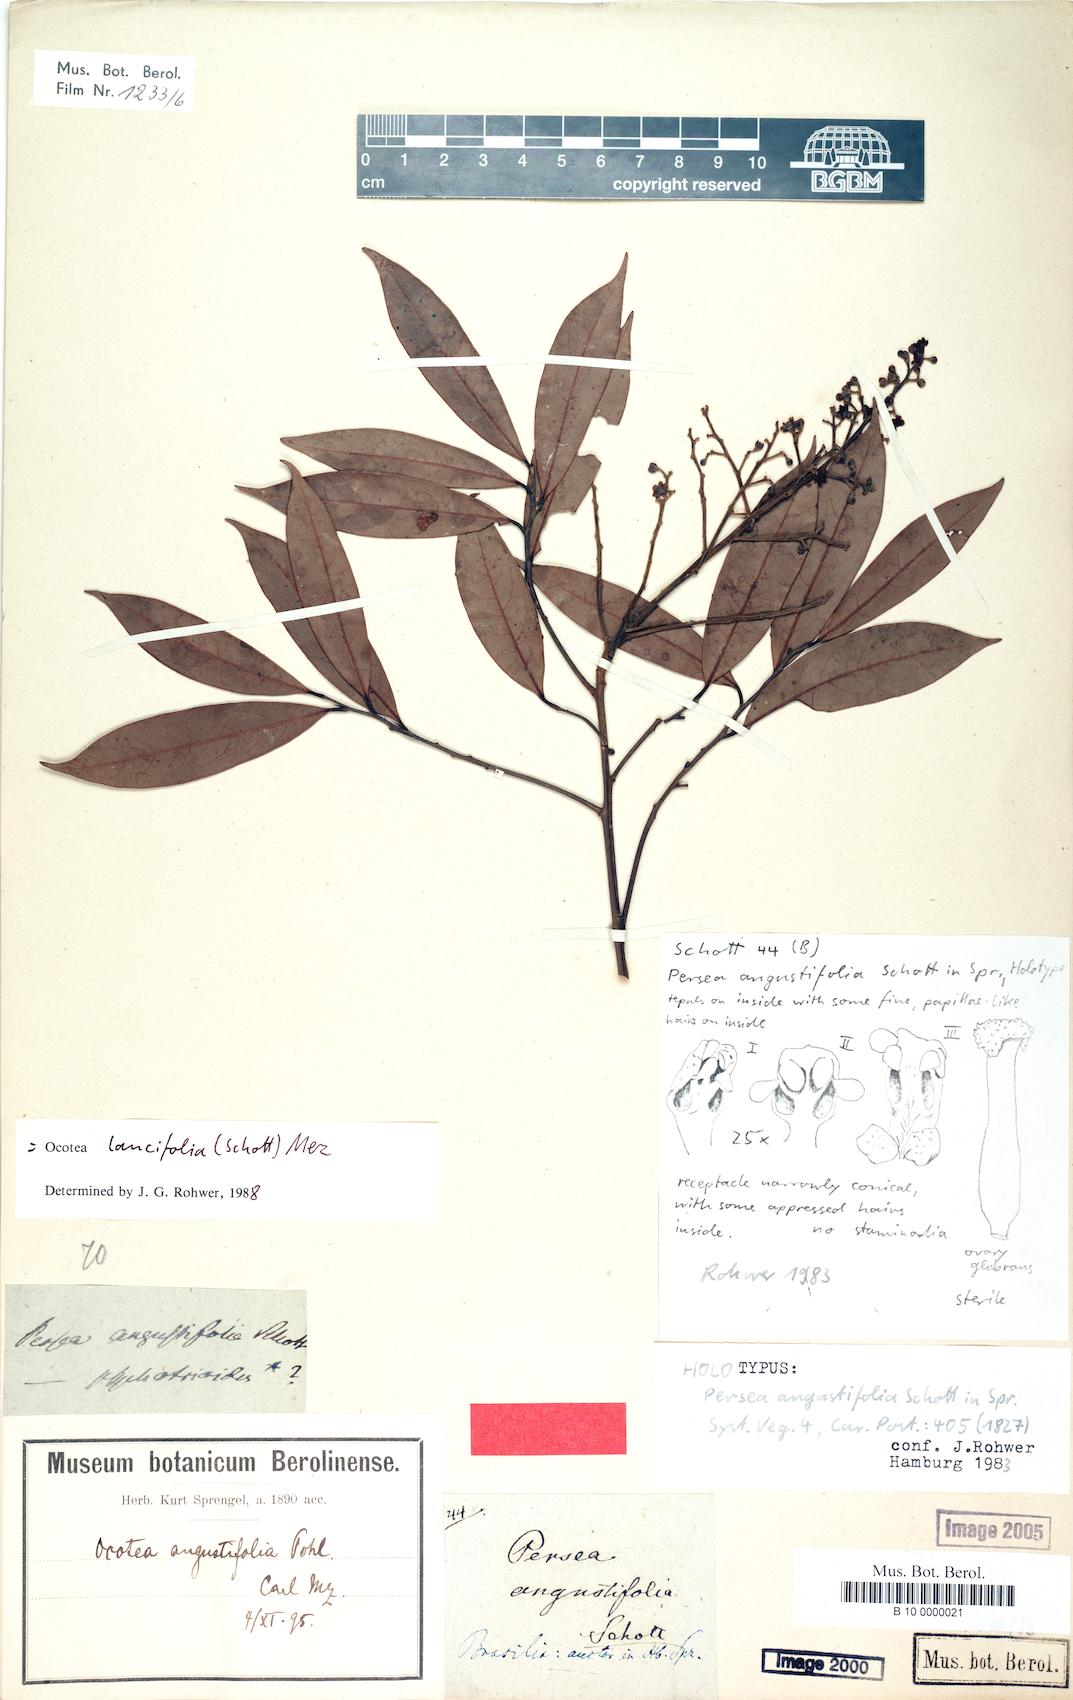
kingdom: Plantae
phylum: Tracheophyta
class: Magnoliopsida
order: Laurales
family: Lauraceae
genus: Ocotea
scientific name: Ocotea lancifolia
